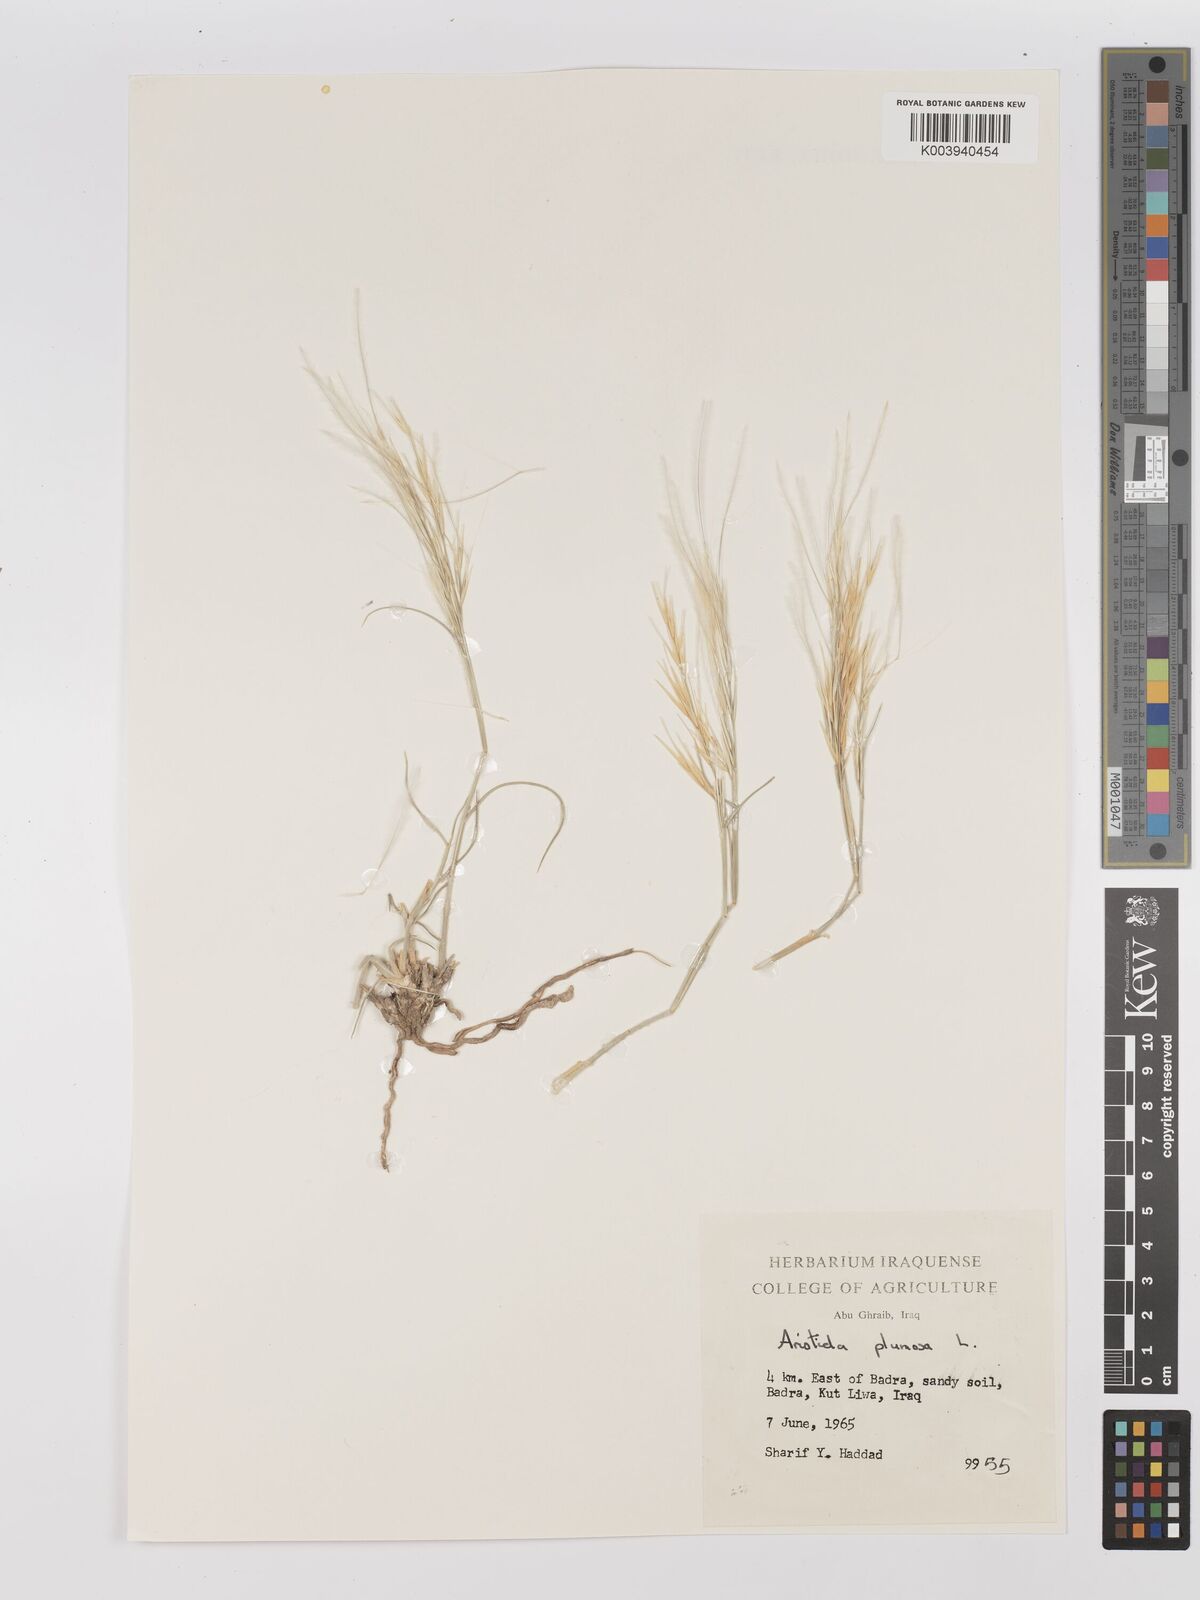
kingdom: Plantae
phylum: Tracheophyta
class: Liliopsida
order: Poales
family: Poaceae
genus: Stipagrostis
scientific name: Stipagrostis plumosa
